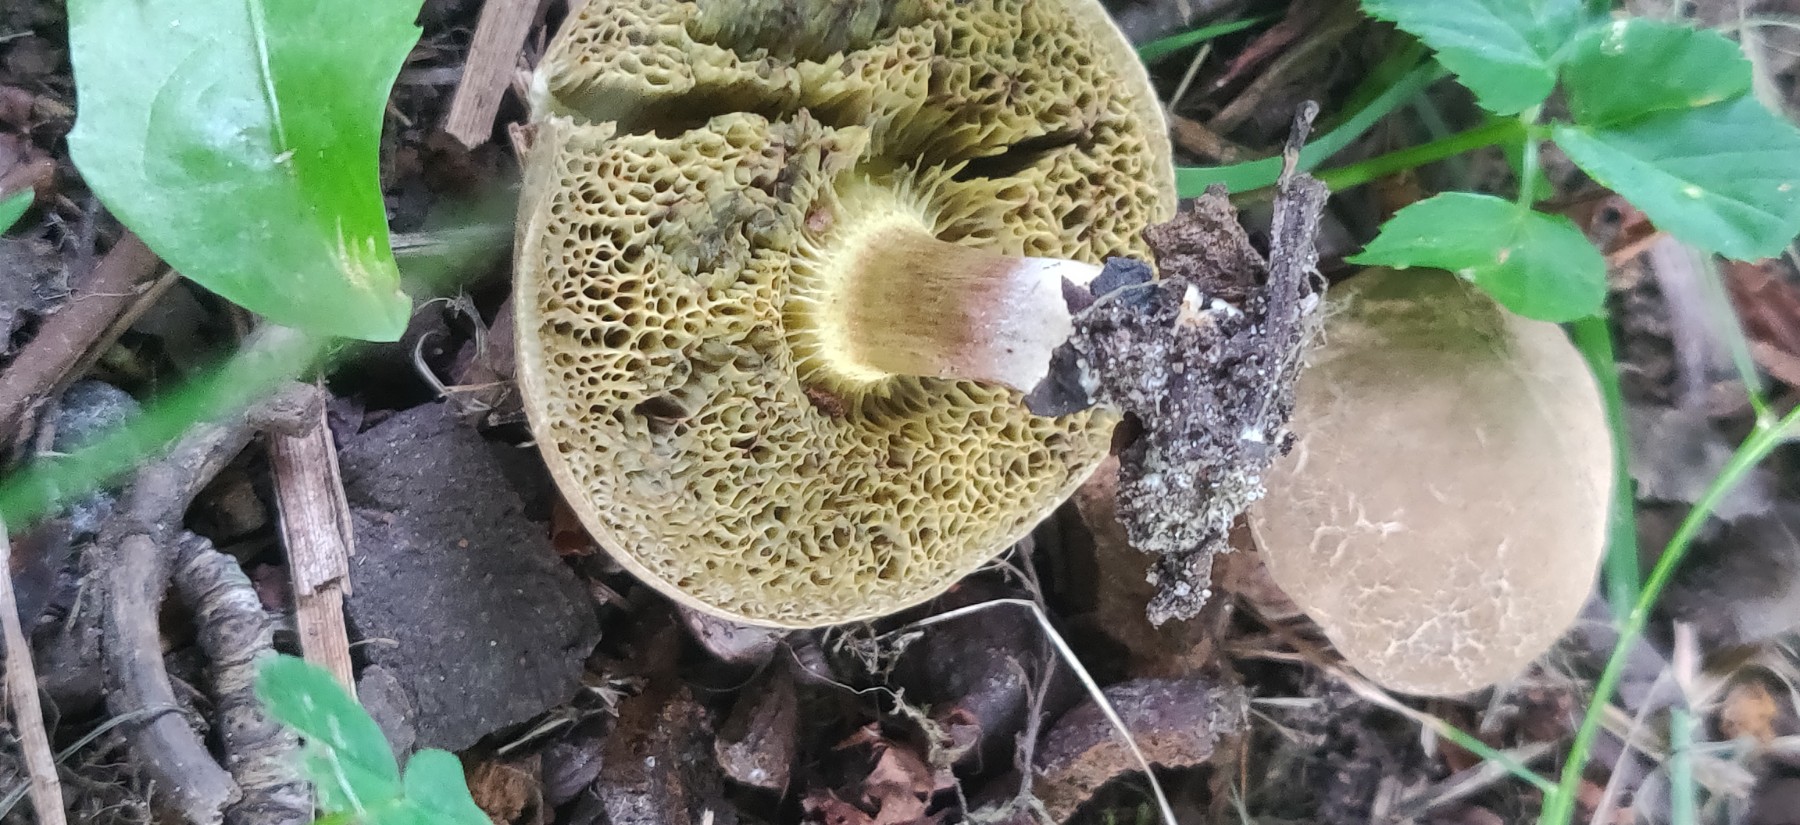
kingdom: Fungi
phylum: Basidiomycota
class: Agaricomycetes
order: Boletales
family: Boletaceae
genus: Xerocomellus
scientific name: Xerocomellus porosporus
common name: hvidsprukken rørhat
